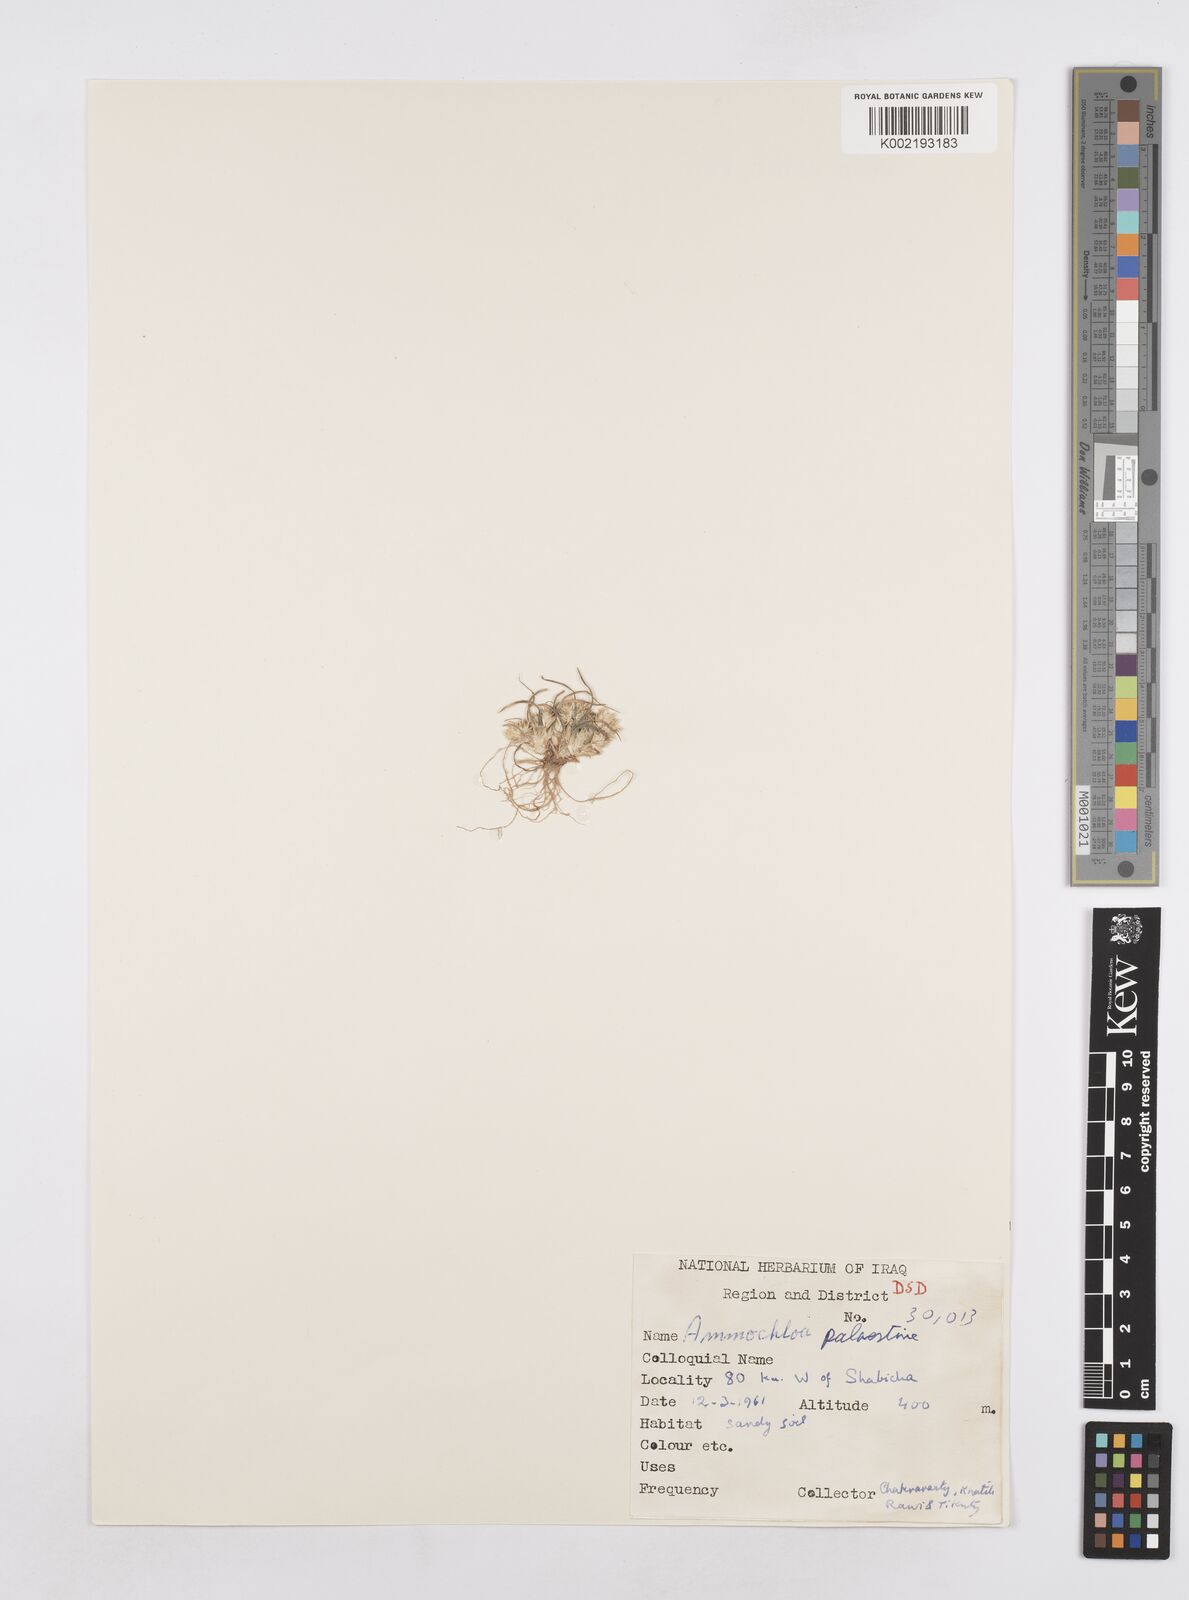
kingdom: Plantae
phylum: Tracheophyta
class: Liliopsida
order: Poales
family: Poaceae
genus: Ammochloa
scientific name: Ammochloa palaestina
